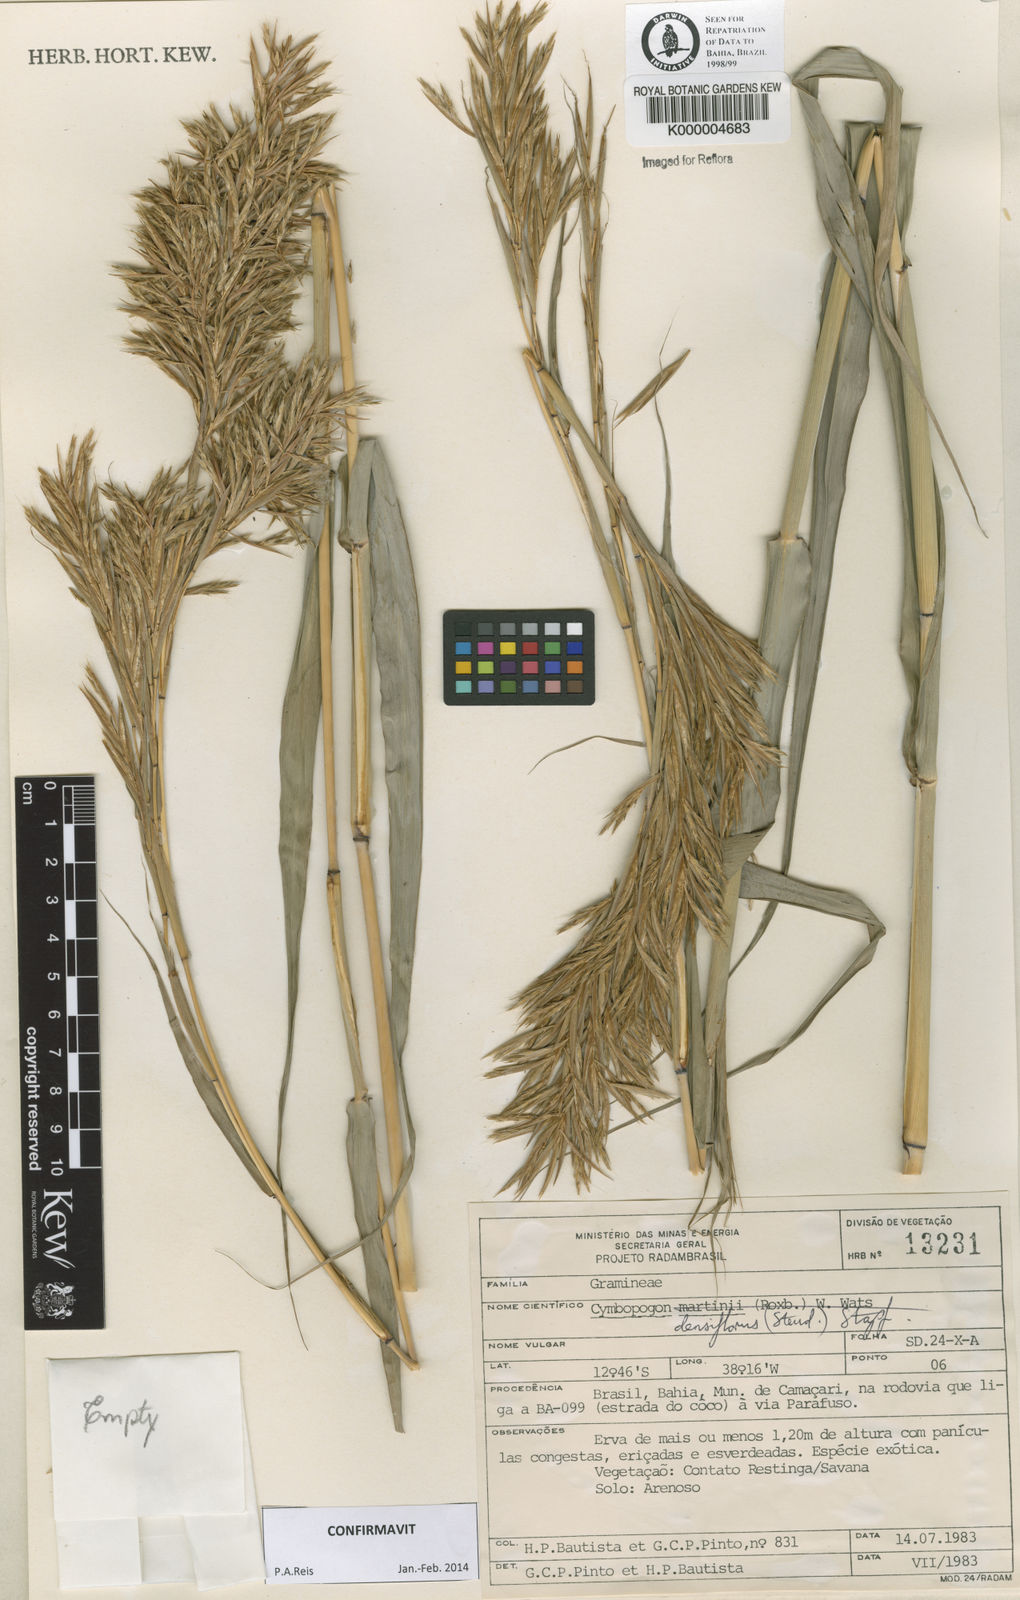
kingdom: Plantae
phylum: Tracheophyta
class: Liliopsida
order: Poales
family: Poaceae
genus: Cymbopogon
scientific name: Cymbopogon densiflorus
